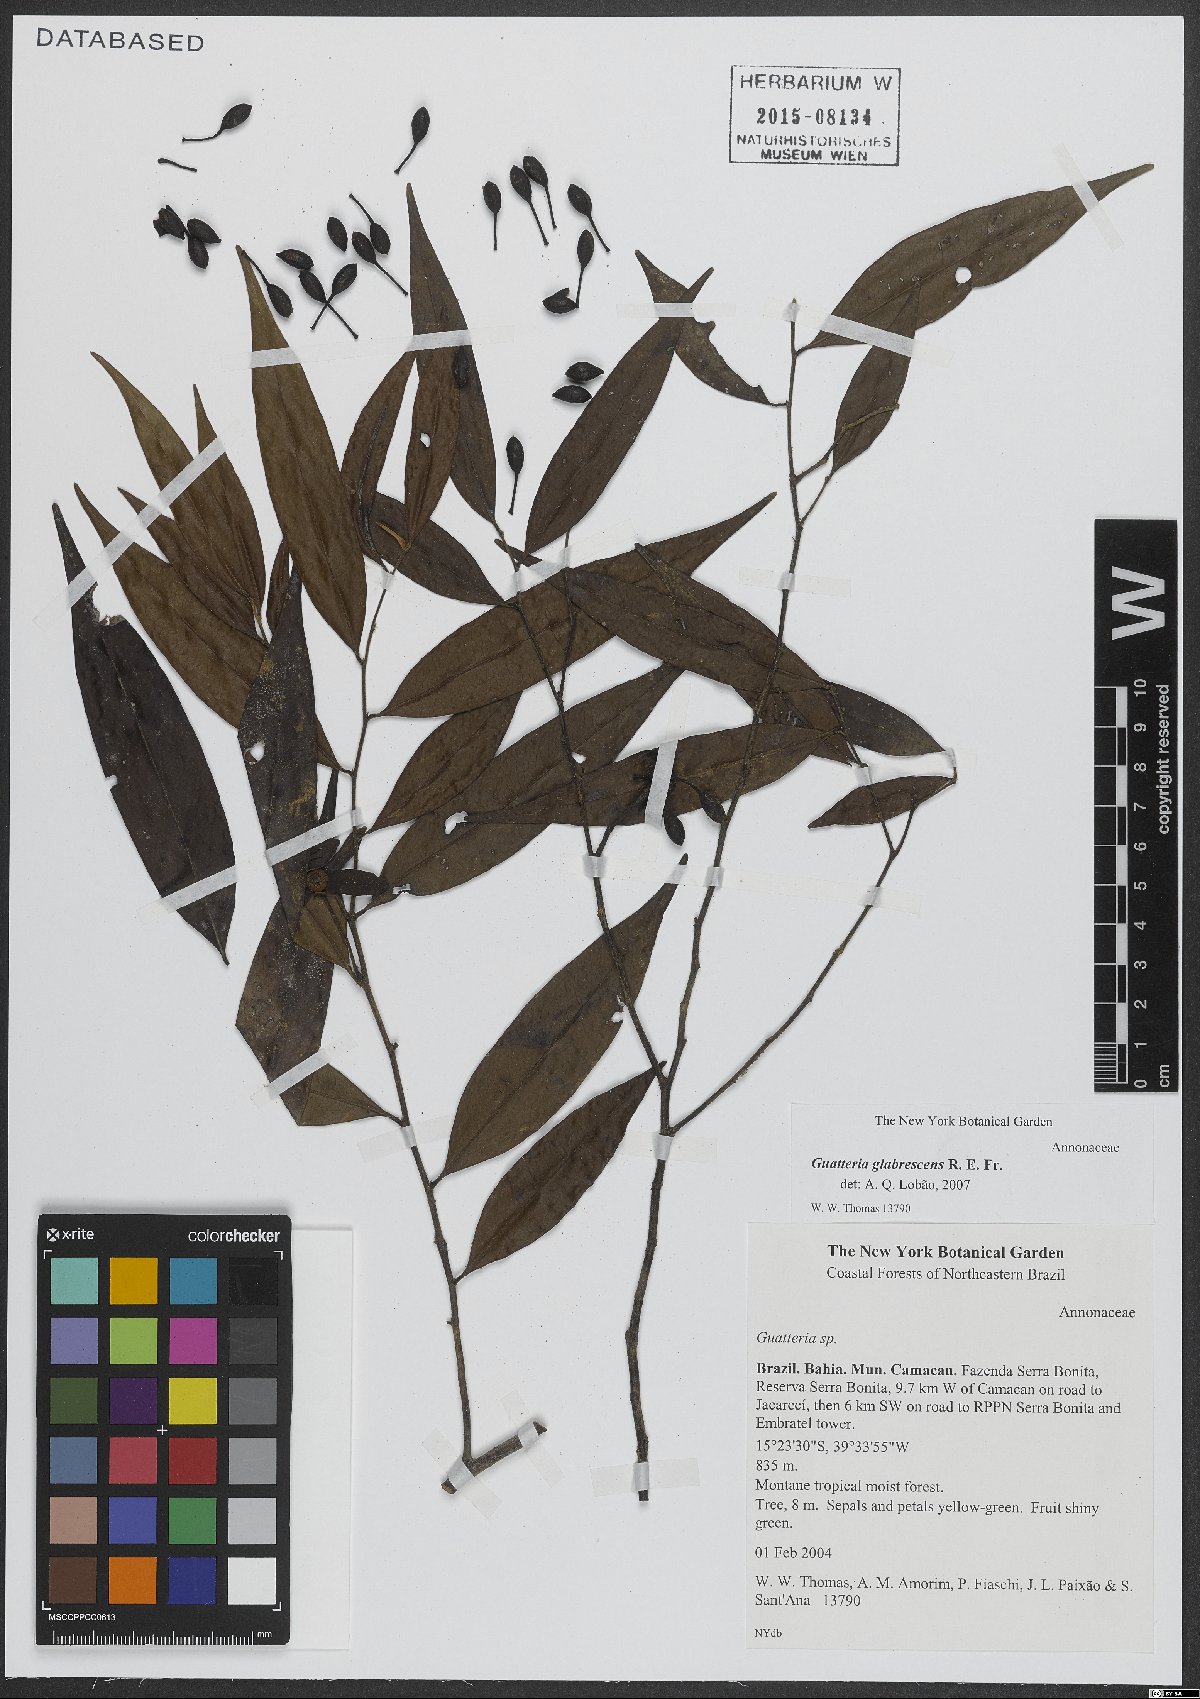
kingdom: Plantae
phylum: Tracheophyta
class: Magnoliopsida
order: Magnoliales
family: Annonaceae
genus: Guatteria
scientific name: Guatteria australis
